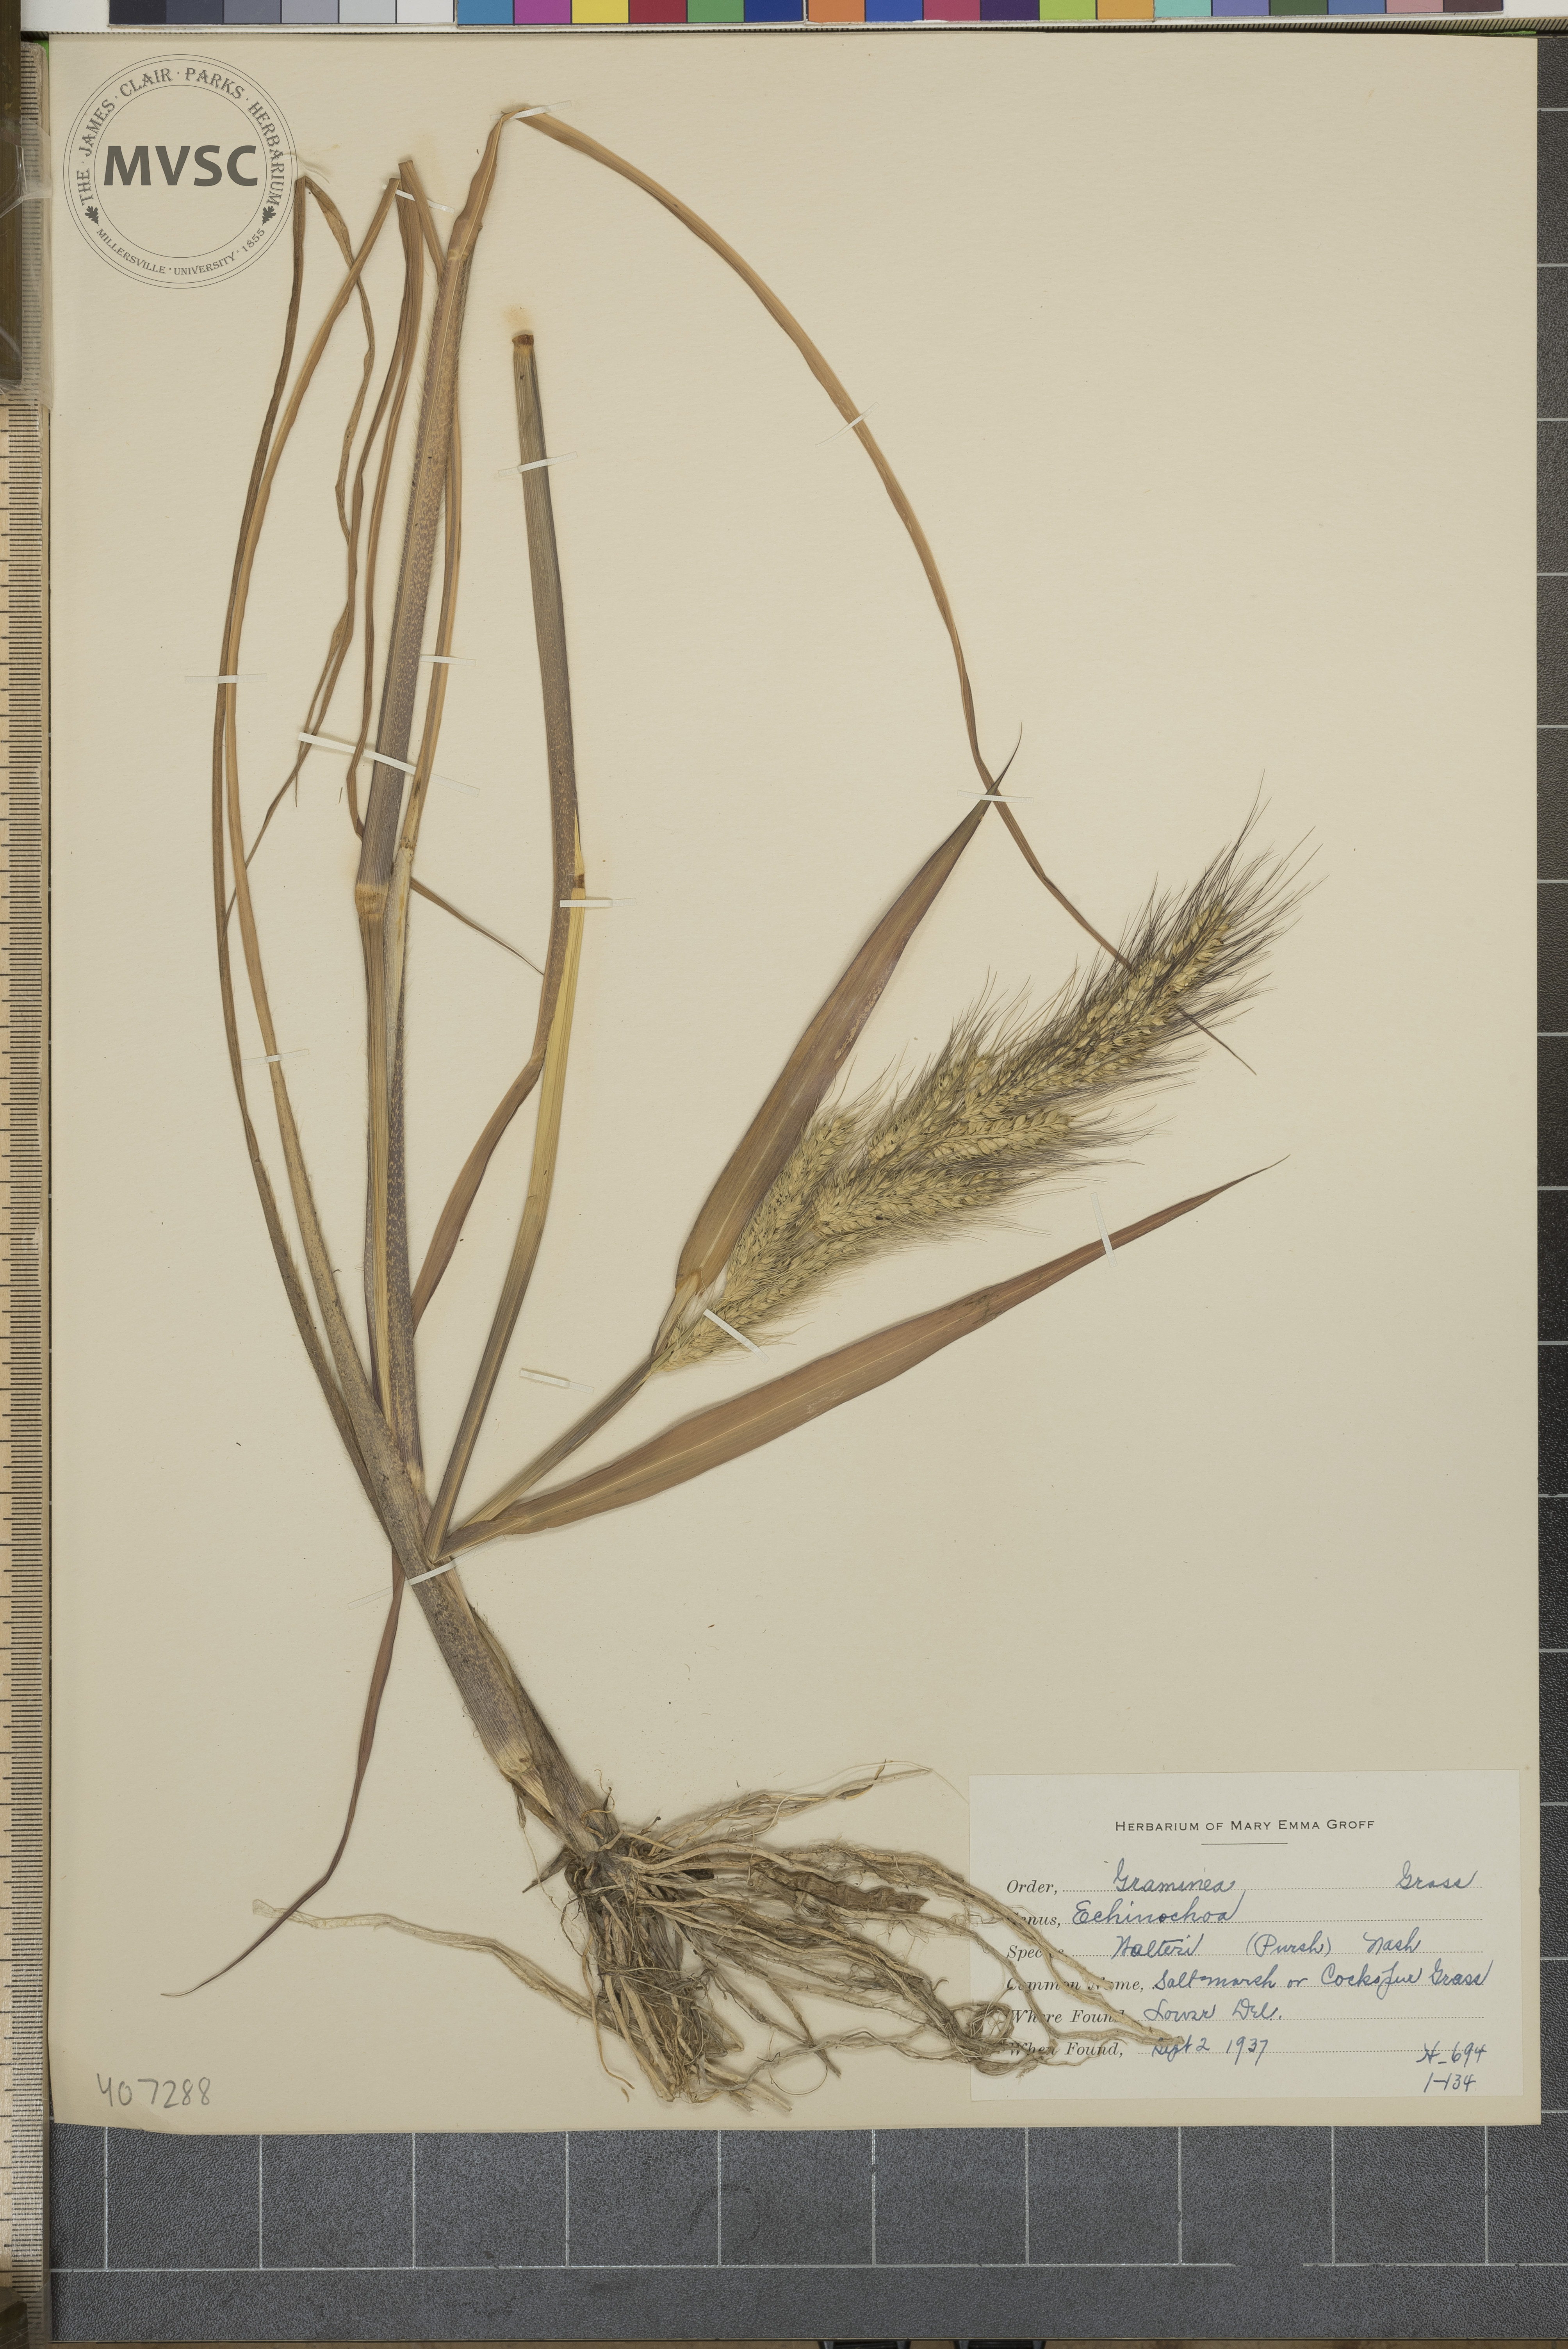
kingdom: Plantae
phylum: Tracheophyta
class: Liliopsida
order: Poales
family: Poaceae
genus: Echinochloa
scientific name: Echinochloa walteri
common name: Coast barnyard grass
